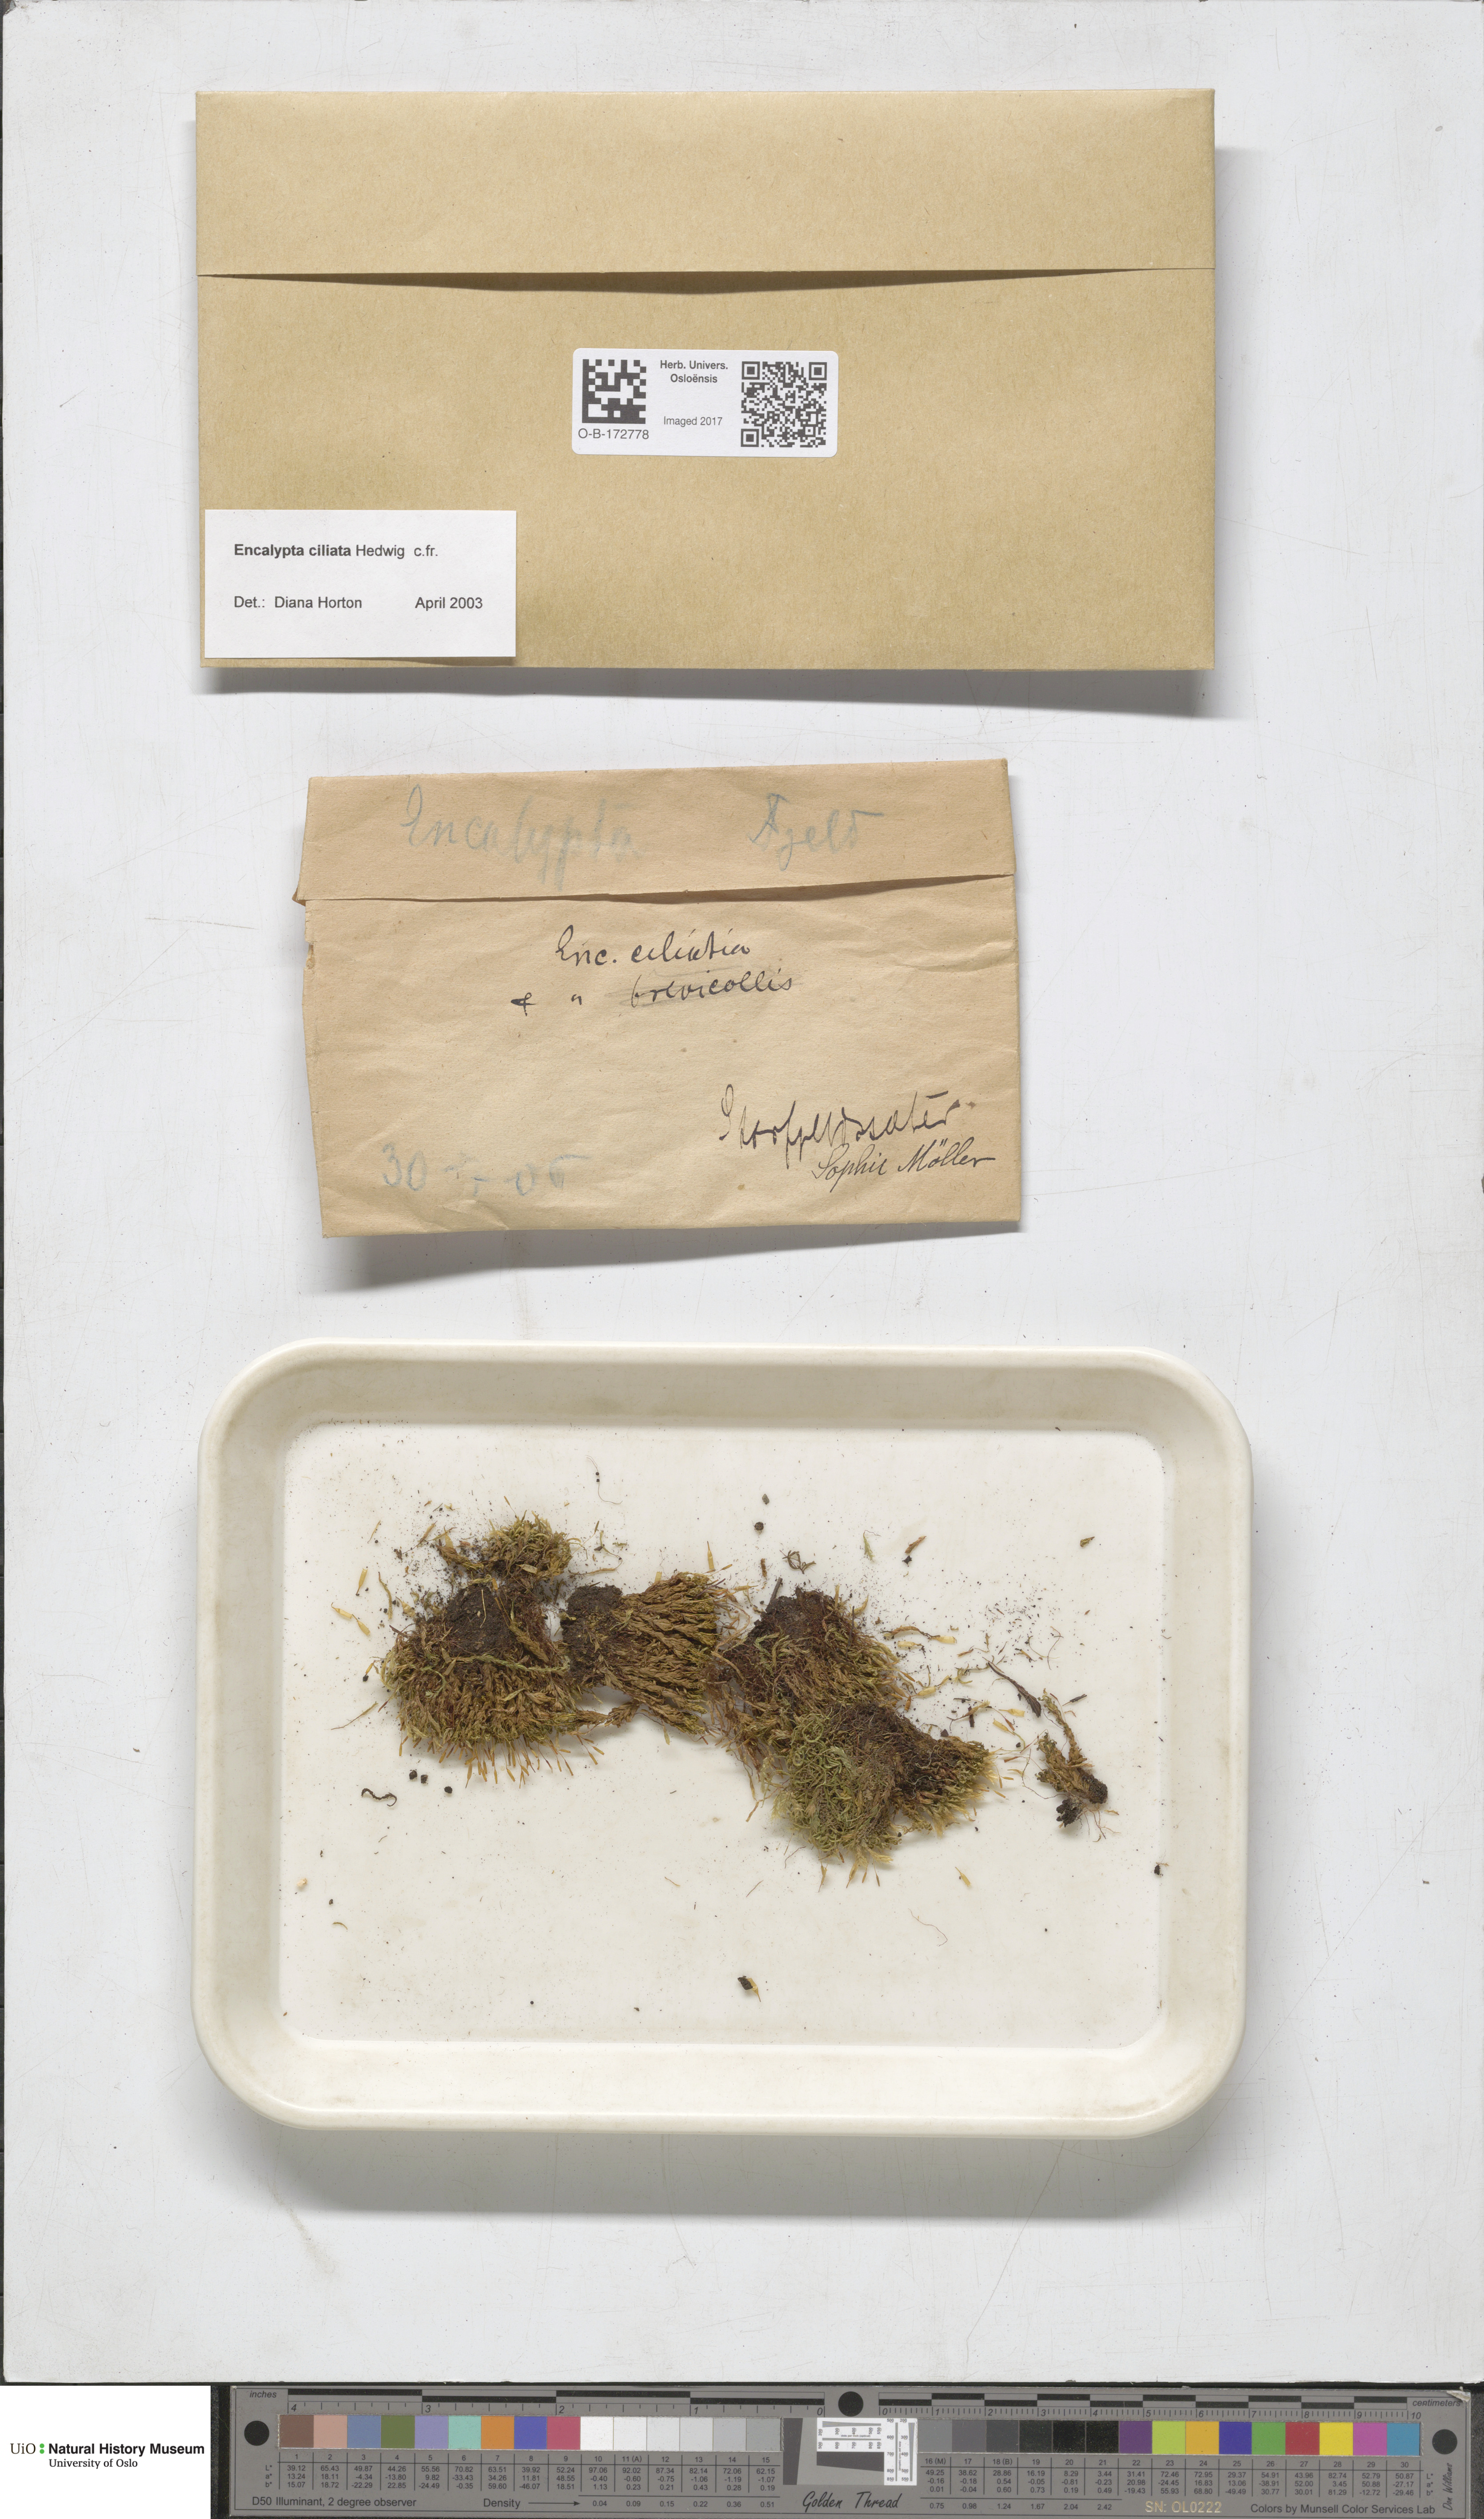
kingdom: Plantae
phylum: Bryophyta
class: Bryopsida
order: Encalyptales
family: Encalyptaceae
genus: Encalypta
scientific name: Encalypta ciliata
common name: Fringed extinguisher-moss
